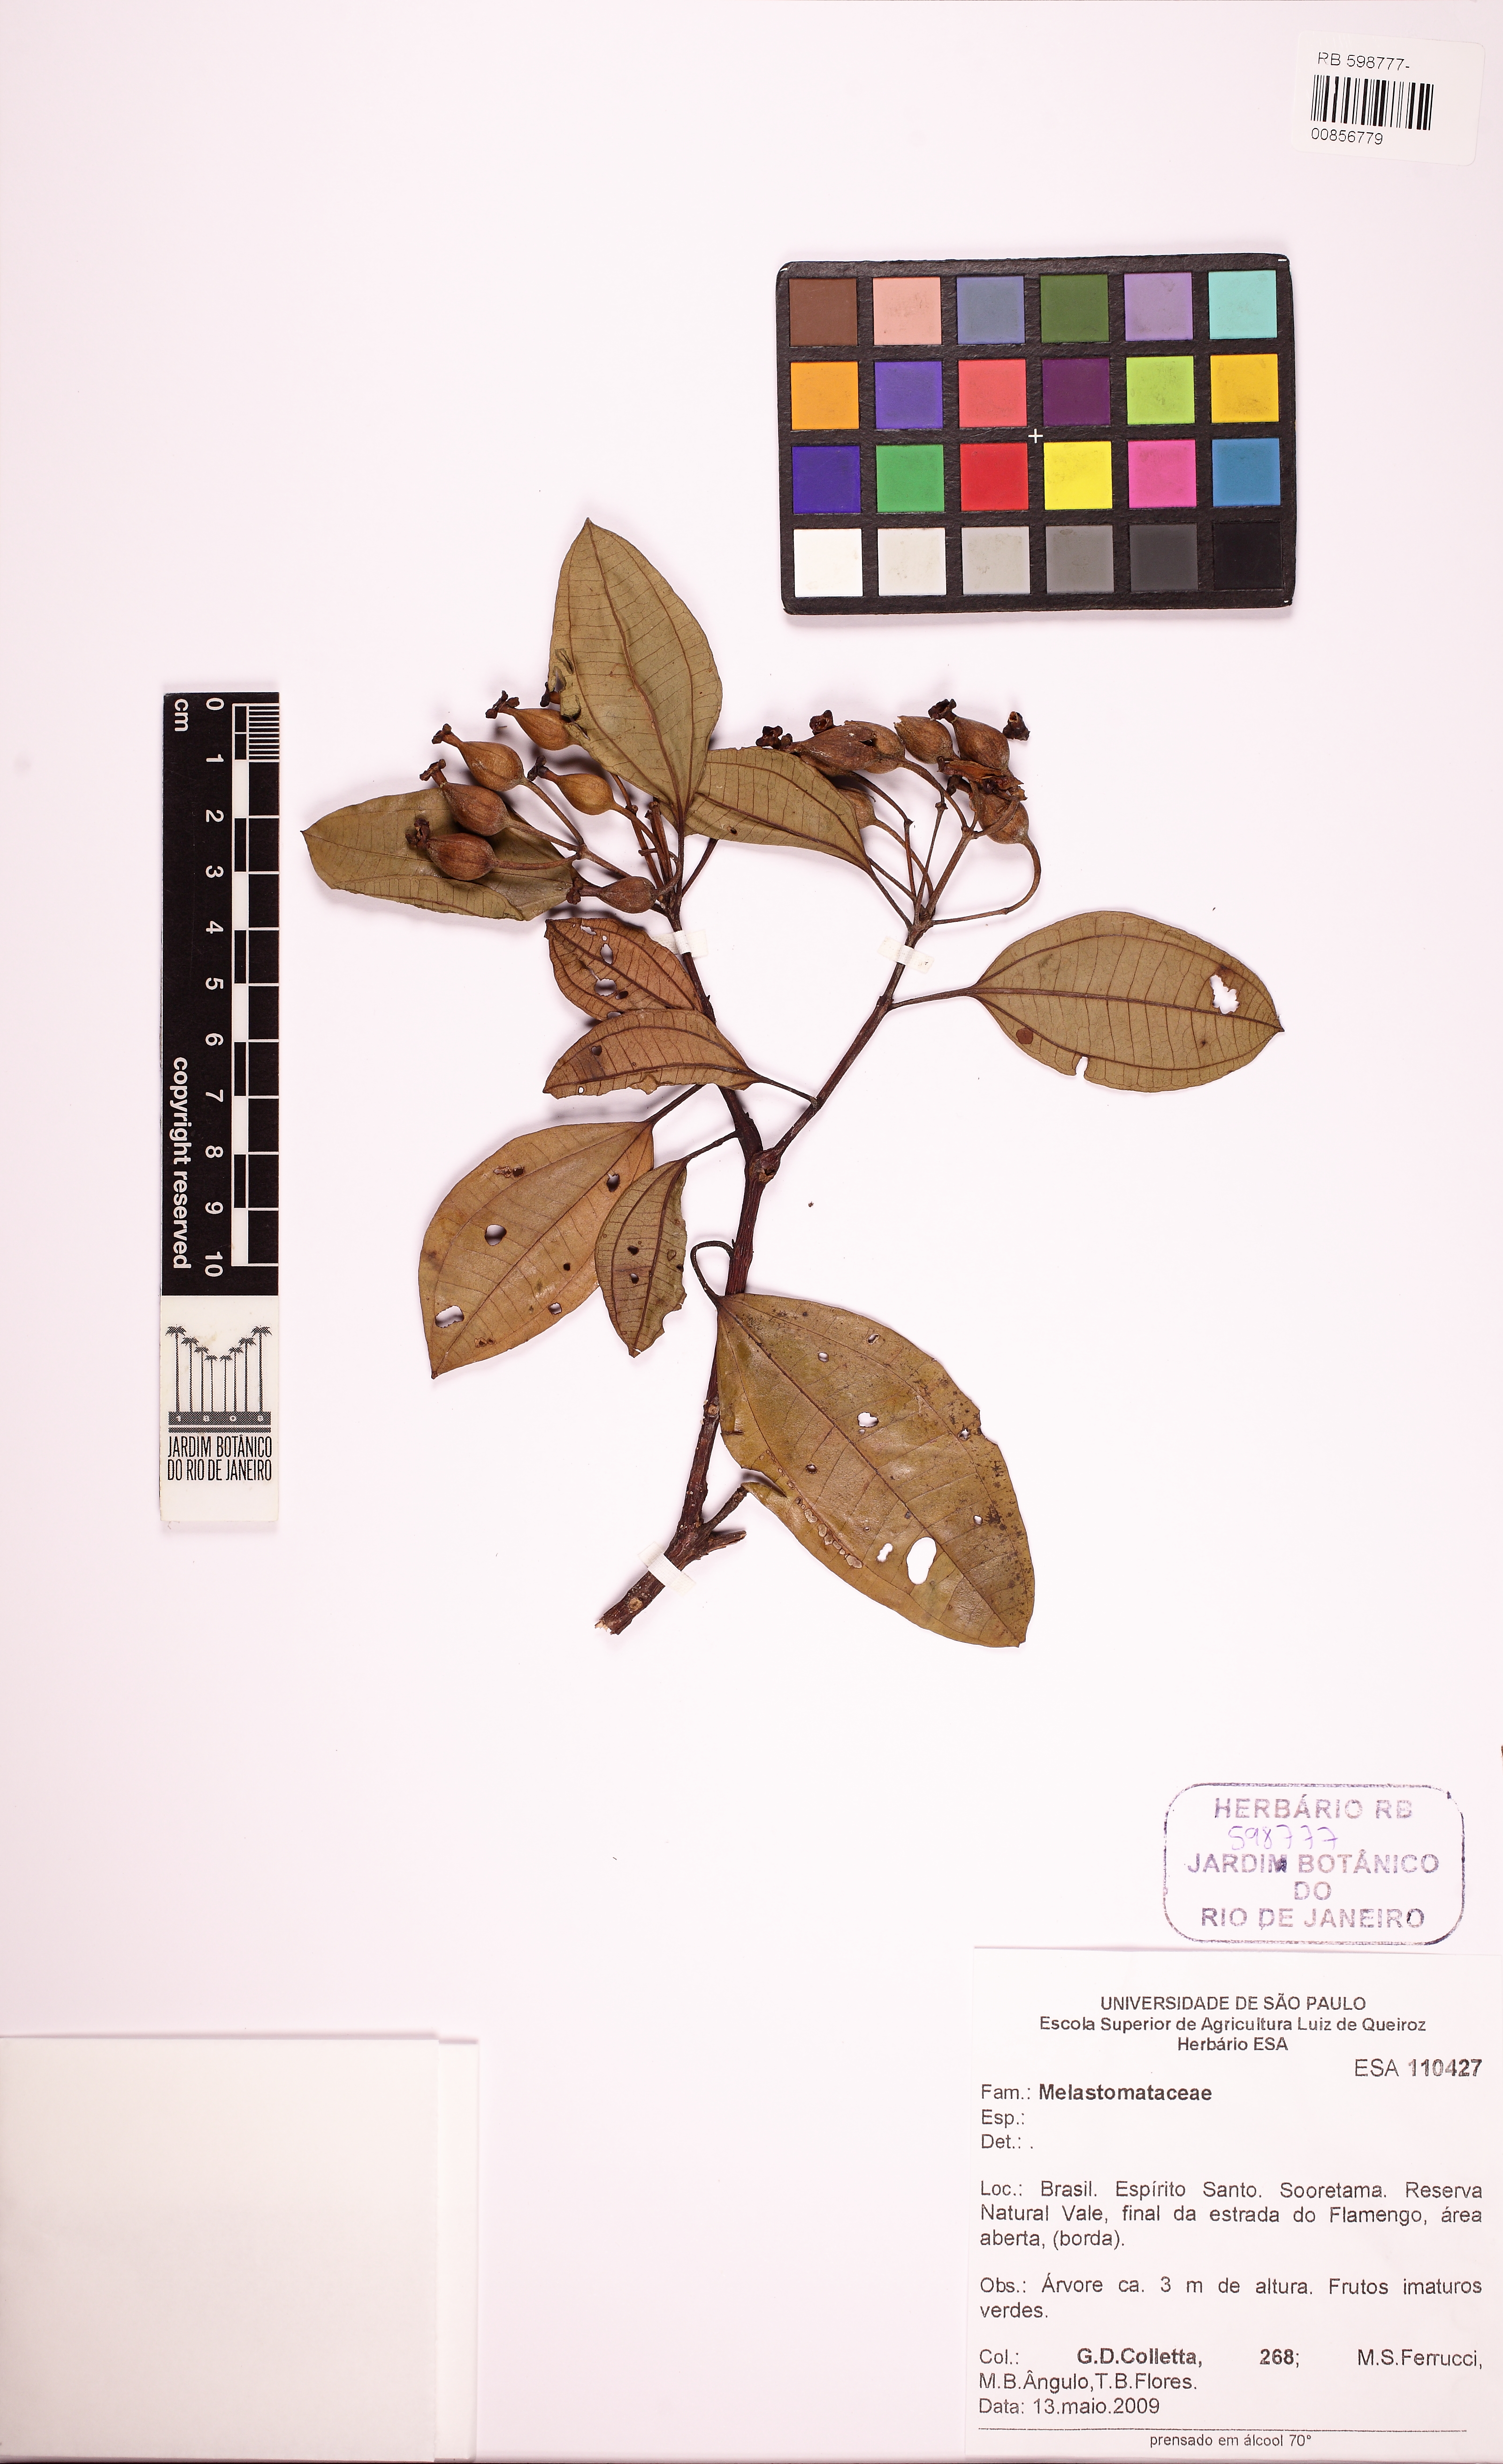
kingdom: Plantae
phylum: Tracheophyta
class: Magnoliopsida
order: Myrtales
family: Melastomataceae
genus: Huberia
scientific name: Huberia ovalifolia
